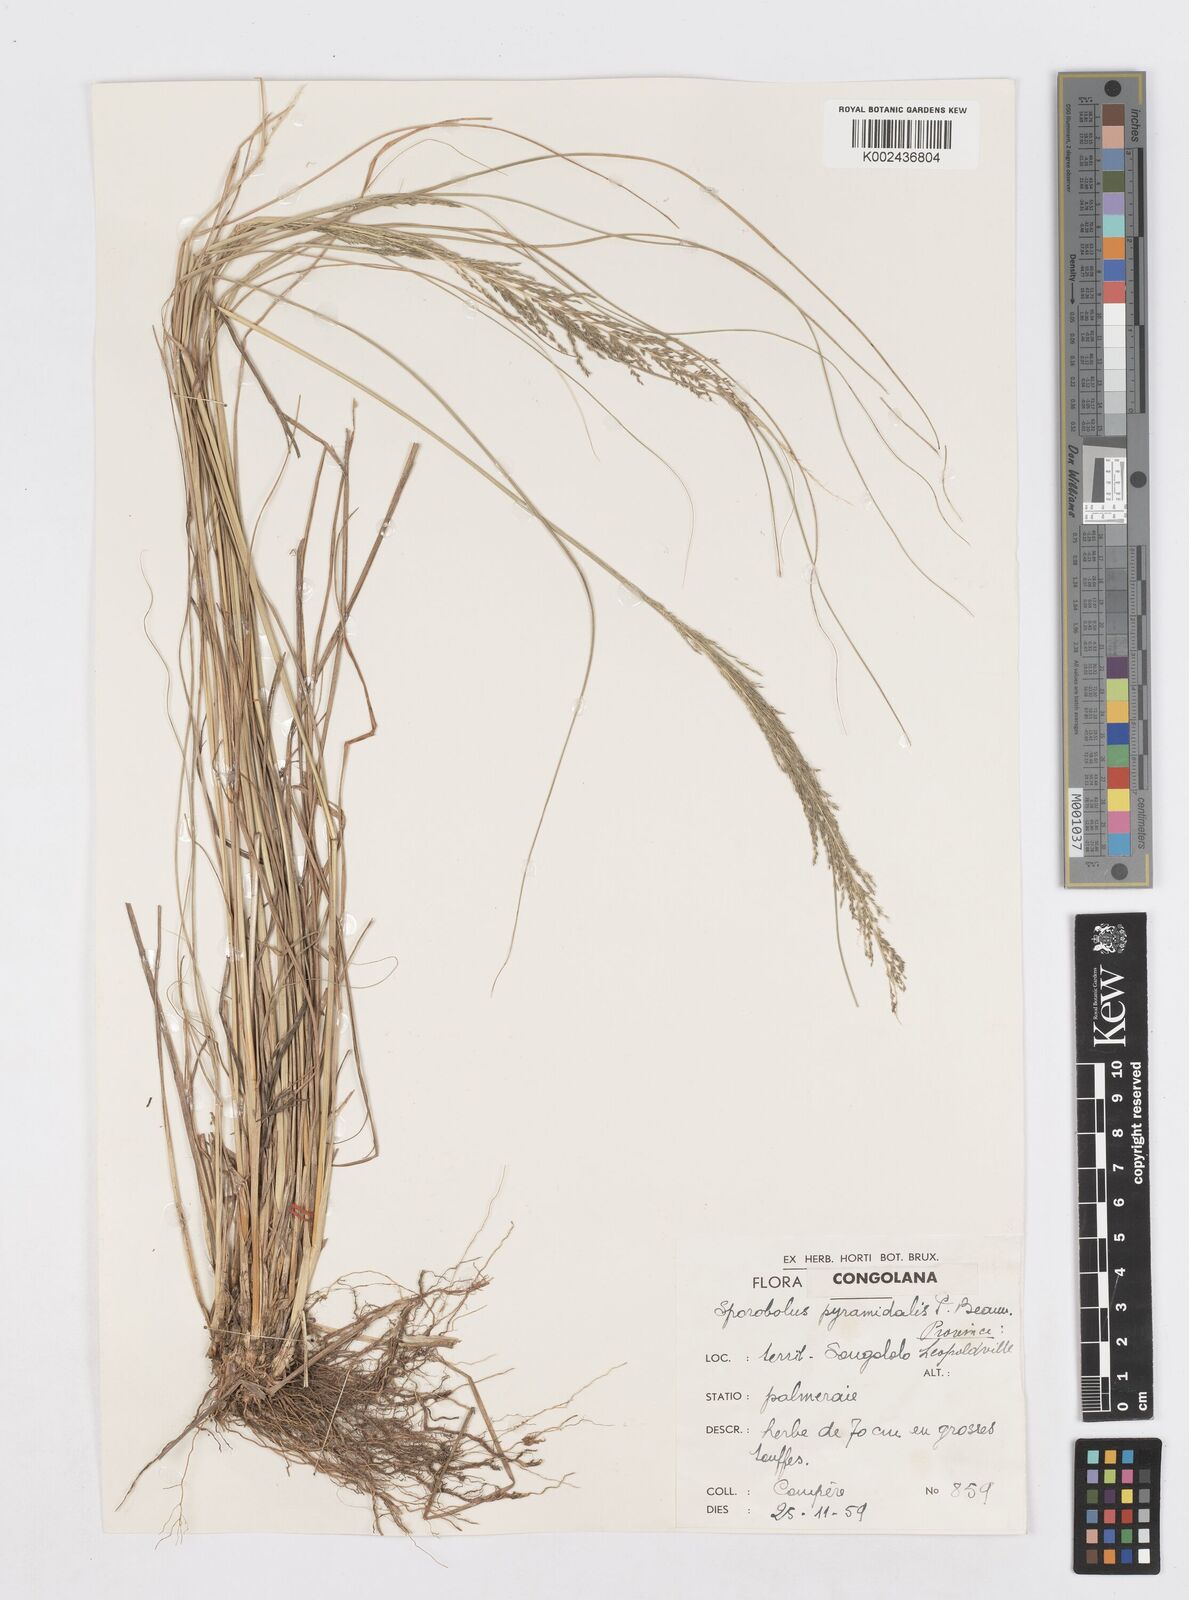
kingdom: Plantae
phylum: Tracheophyta
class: Liliopsida
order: Poales
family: Poaceae
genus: Sporobolus
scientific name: Sporobolus pyramidalis
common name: West indian dropseed
